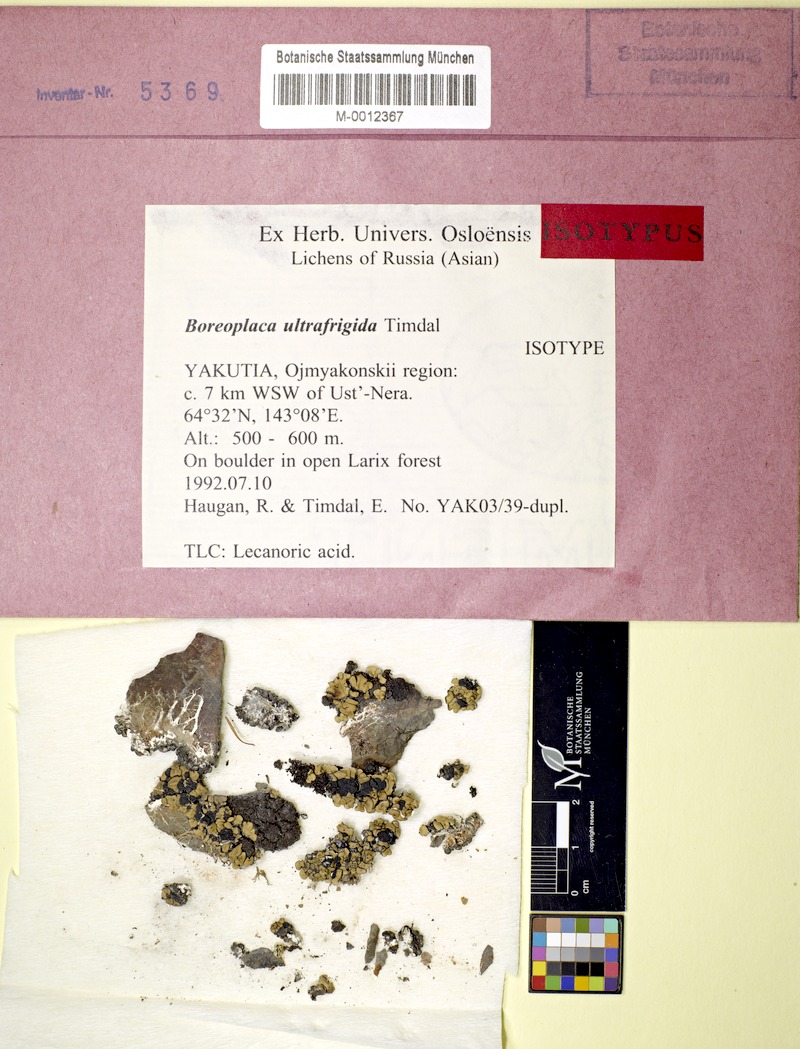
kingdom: Fungi
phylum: Ascomycota
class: Lecanoromycetes
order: Umbilicariales
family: Ophioparmaceae
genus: Boreoplaca
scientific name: Boreoplaca ultrafrigida
